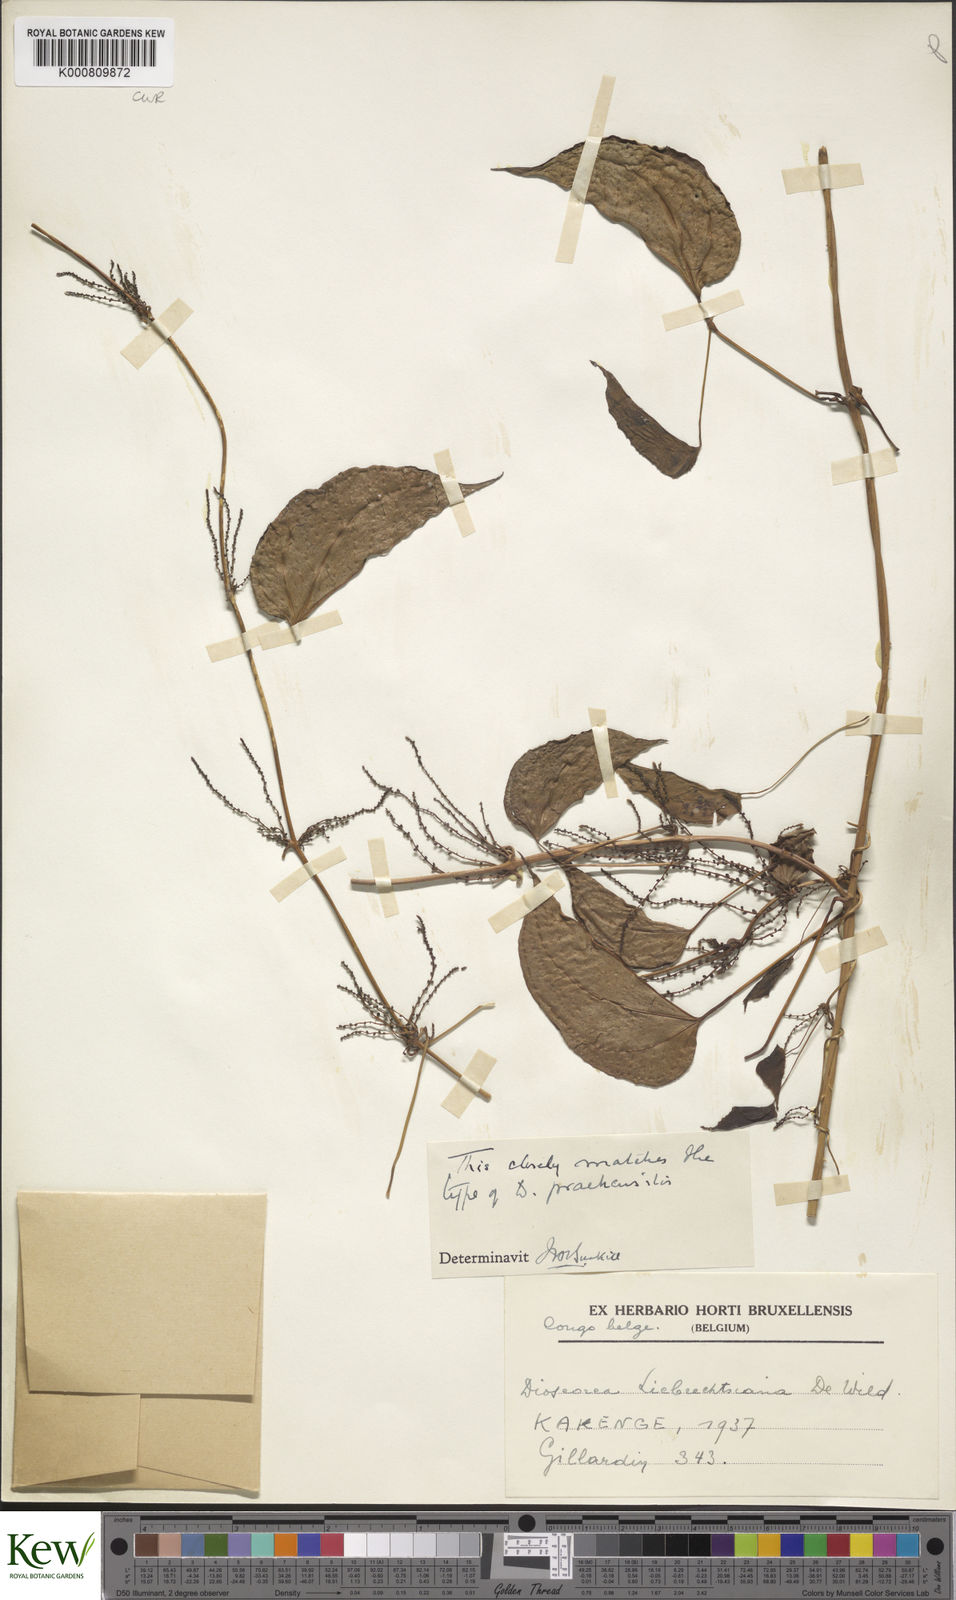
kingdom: Plantae
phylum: Tracheophyta
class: Liliopsida
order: Dioscoreales
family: Dioscoreaceae
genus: Dioscorea
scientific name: Dioscorea praehensilis
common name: Bush yam
